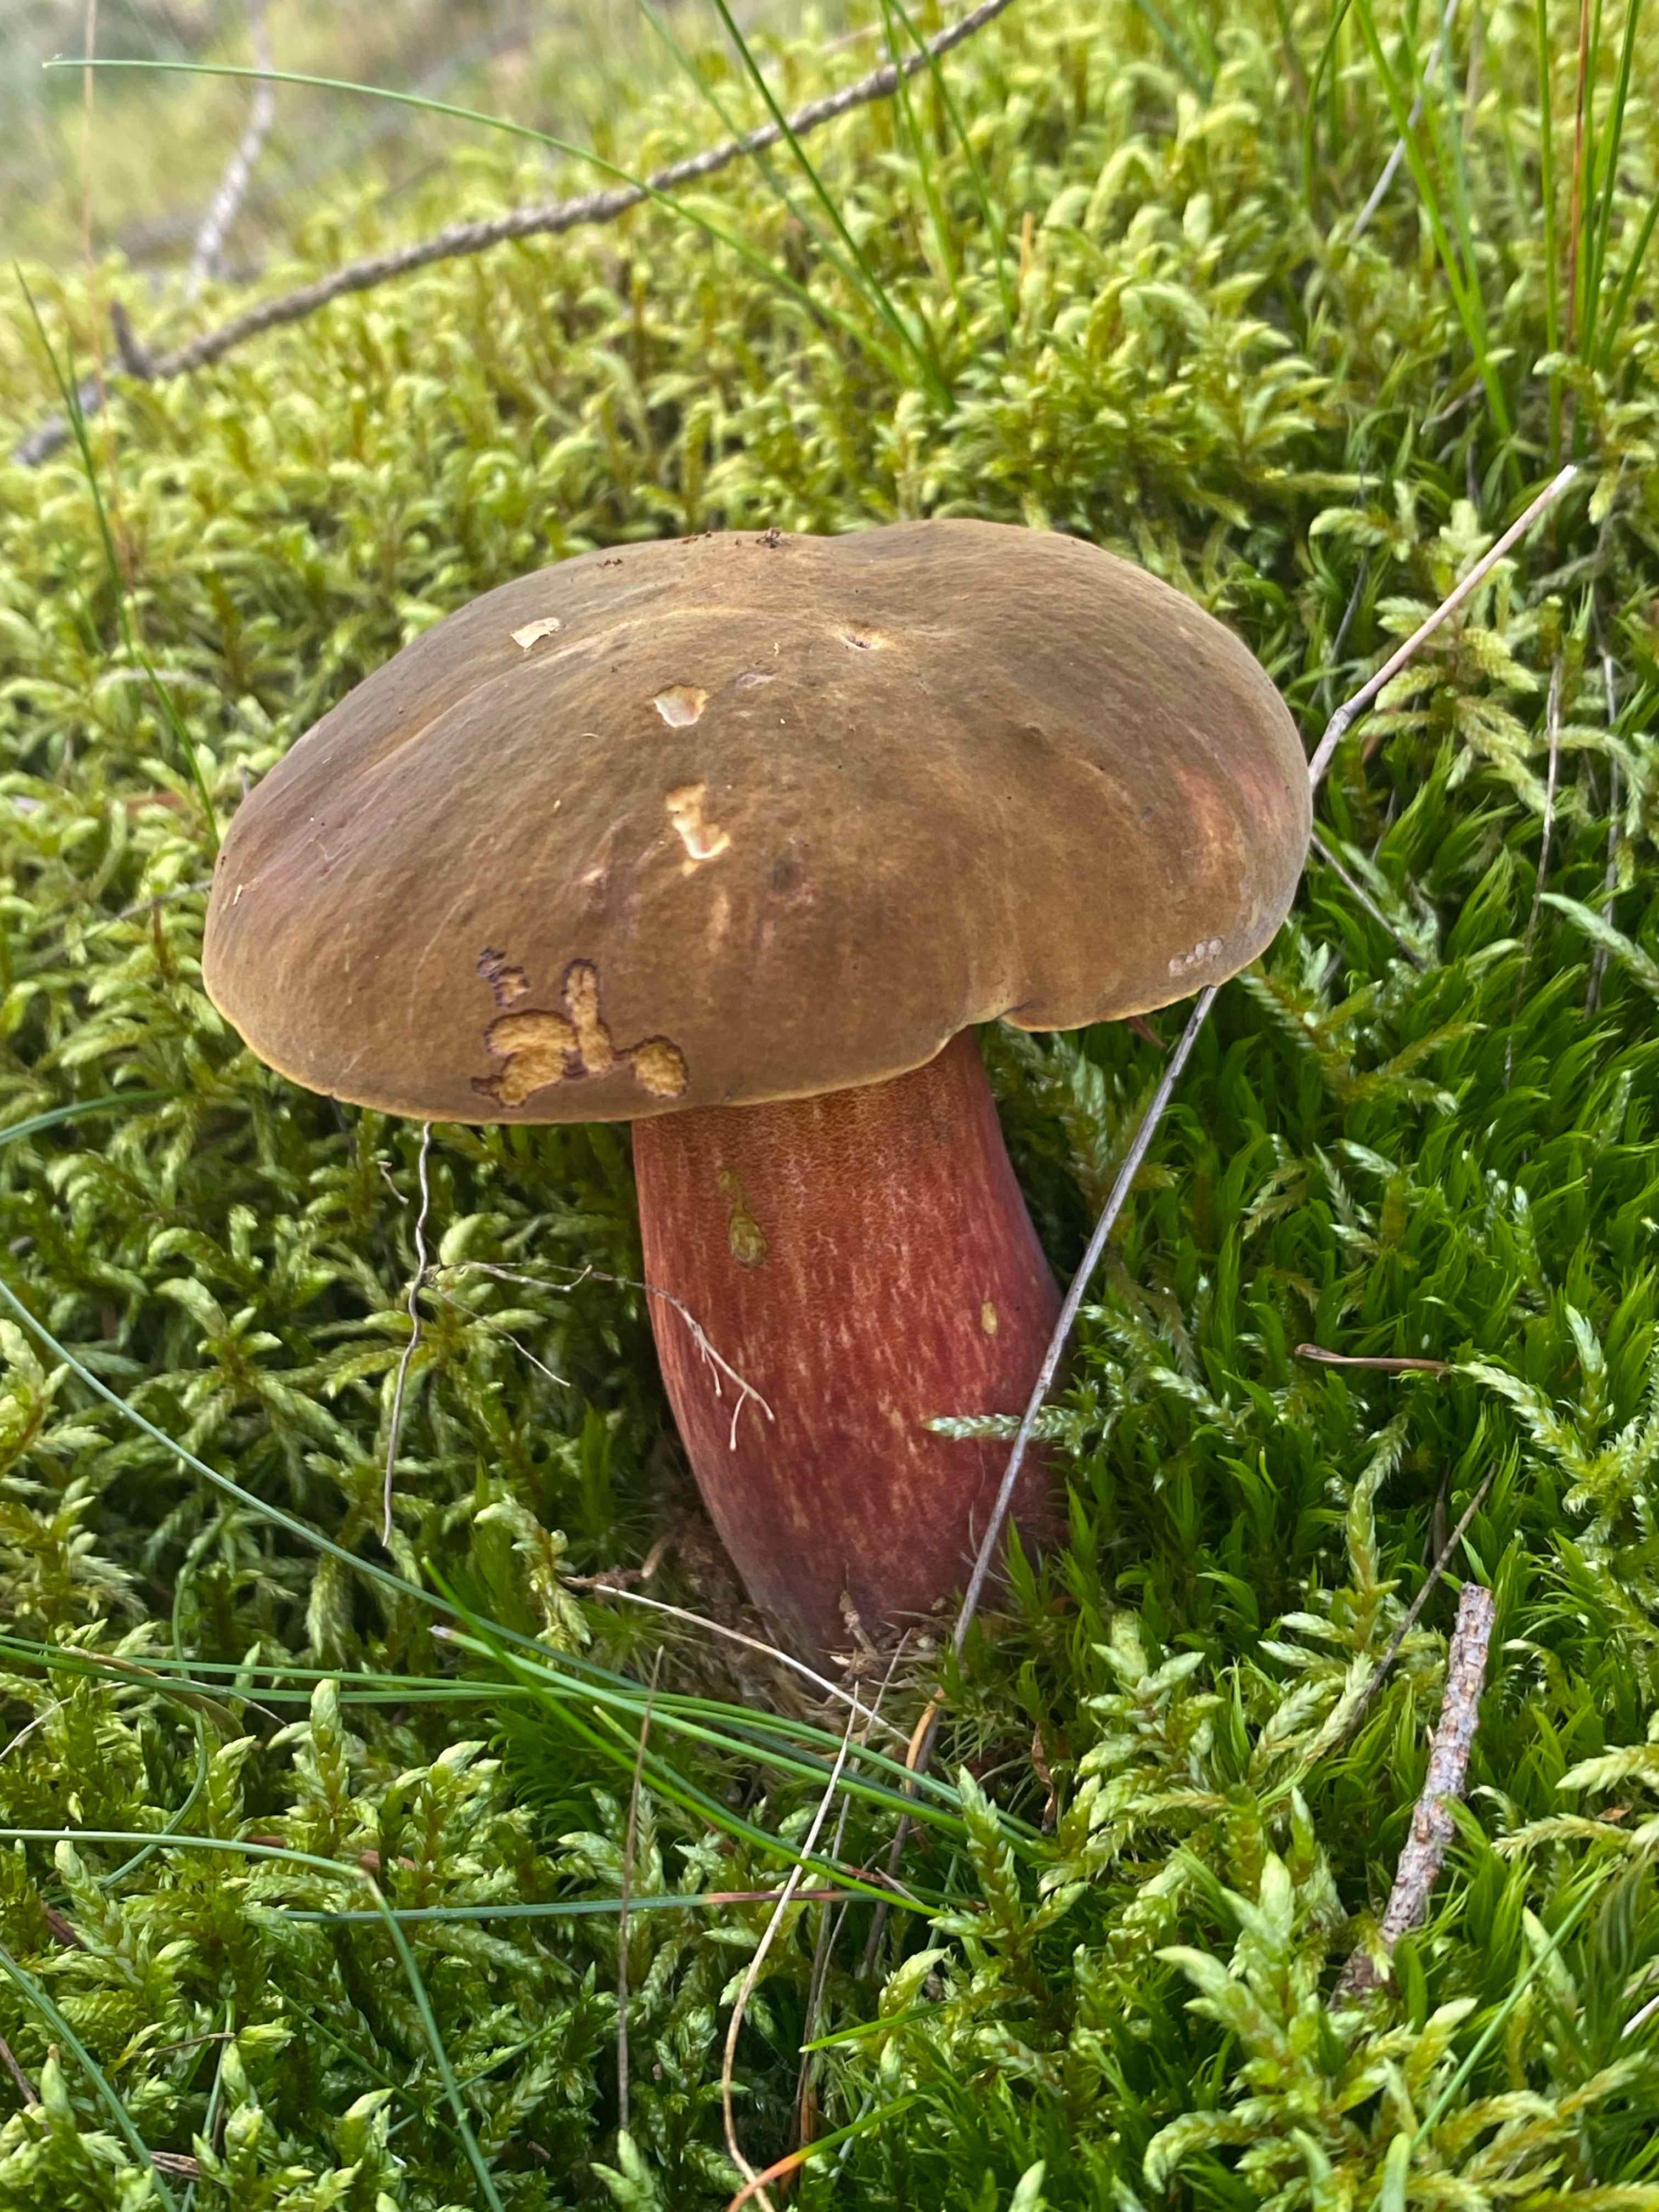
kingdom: Fungi
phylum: Basidiomycota
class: Agaricomycetes
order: Boletales
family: Boletaceae
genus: Neoboletus
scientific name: Neoboletus erythropus
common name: punktstokket indigorørhat
